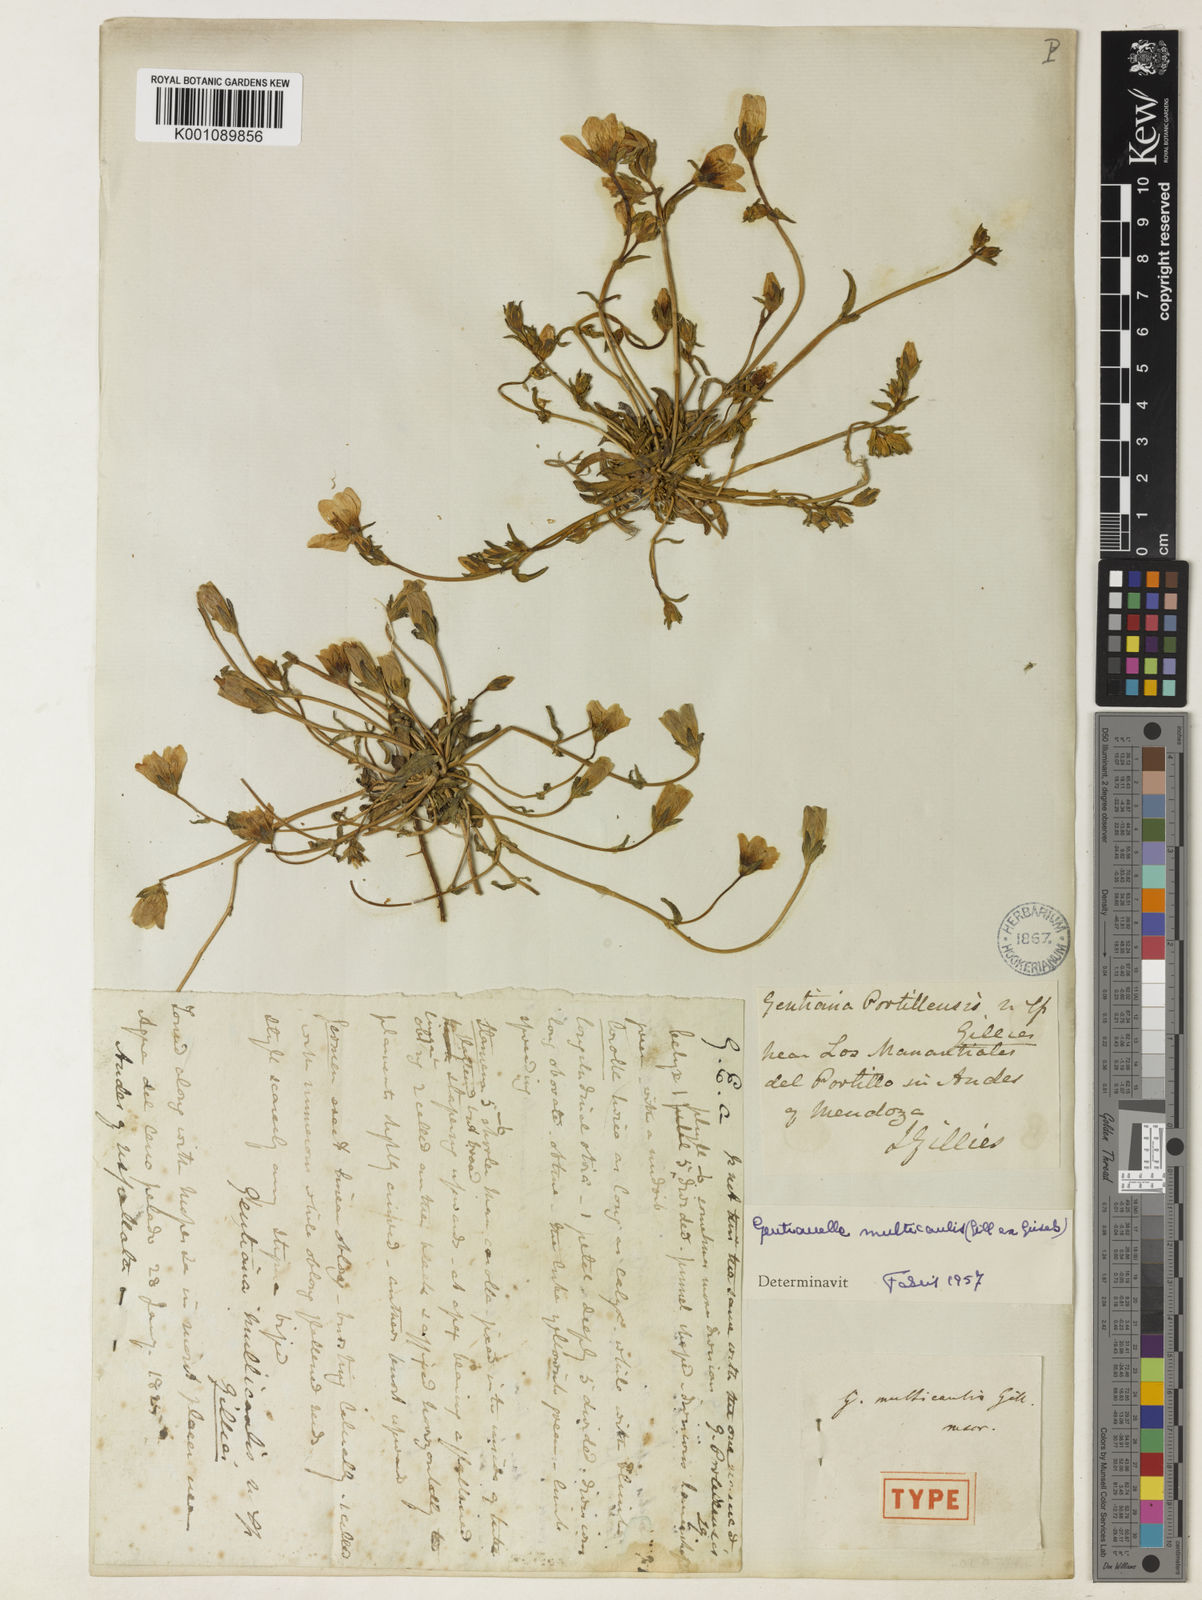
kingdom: Plantae
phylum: Tracheophyta
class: Magnoliopsida
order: Gentianales
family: Gentianaceae
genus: Gentianella
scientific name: Gentianella multicaulis
